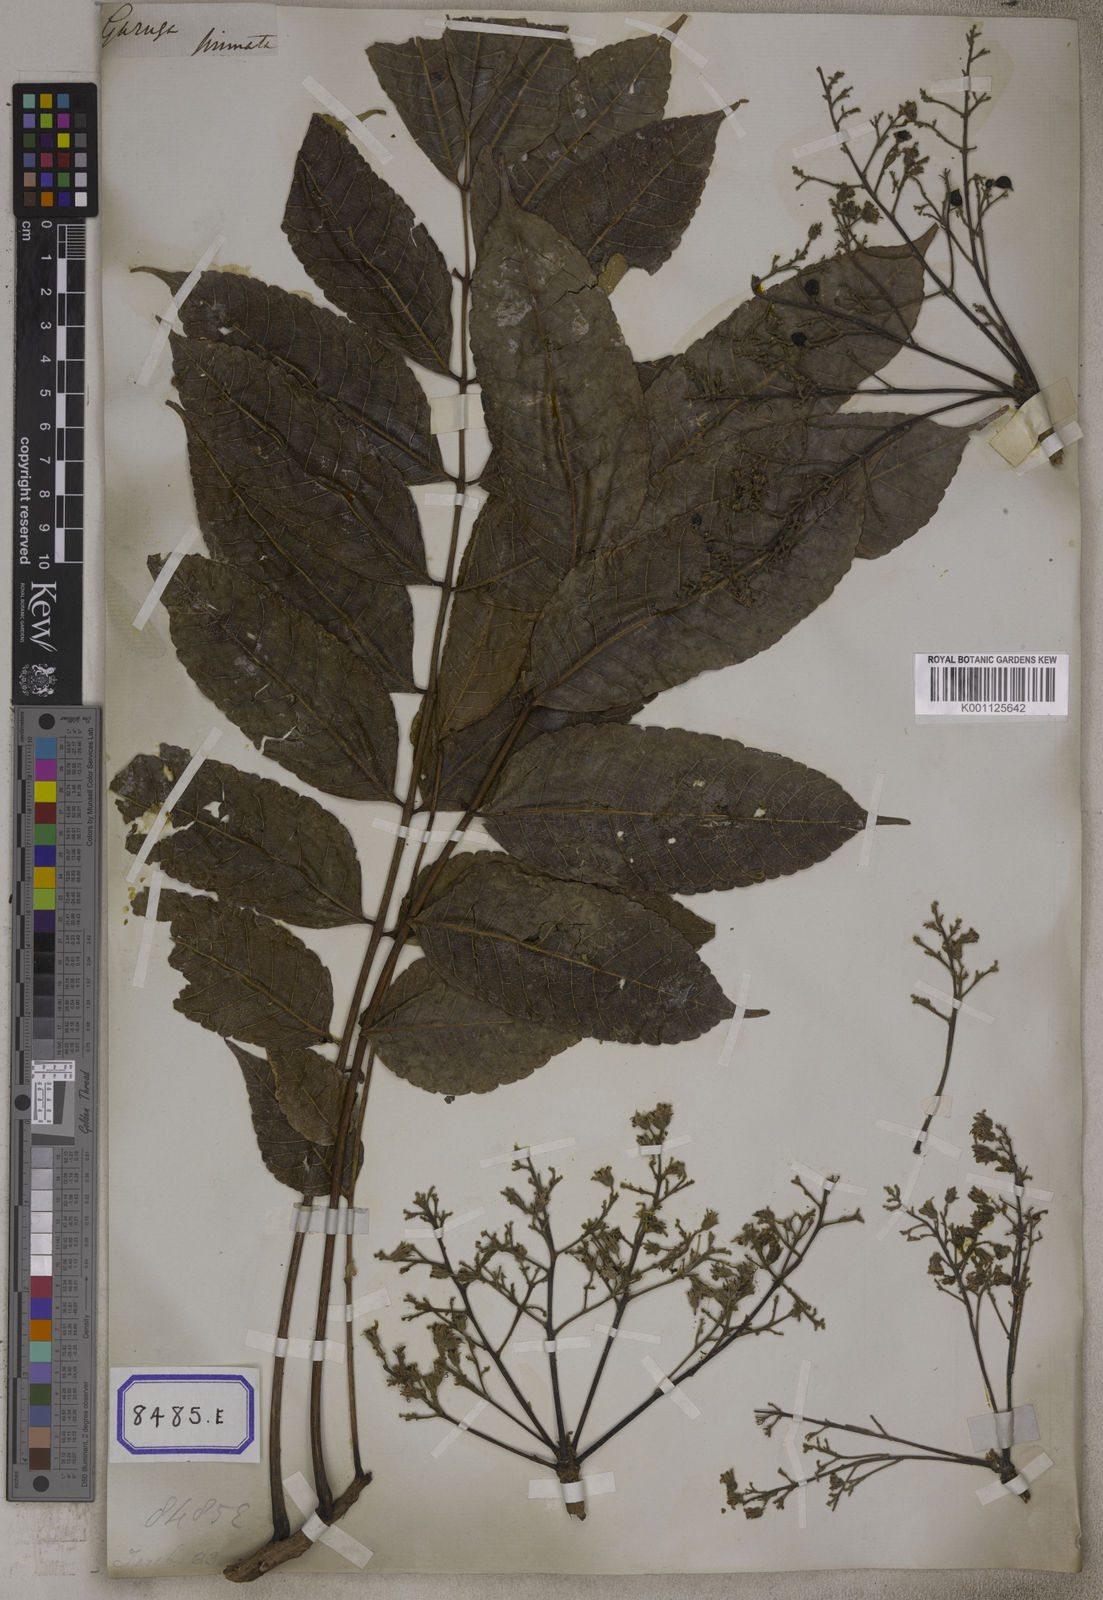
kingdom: Plantae
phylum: Tracheophyta
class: Magnoliopsida
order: Sapindales
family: Burseraceae
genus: Garuga
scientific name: Garuga pinnata
